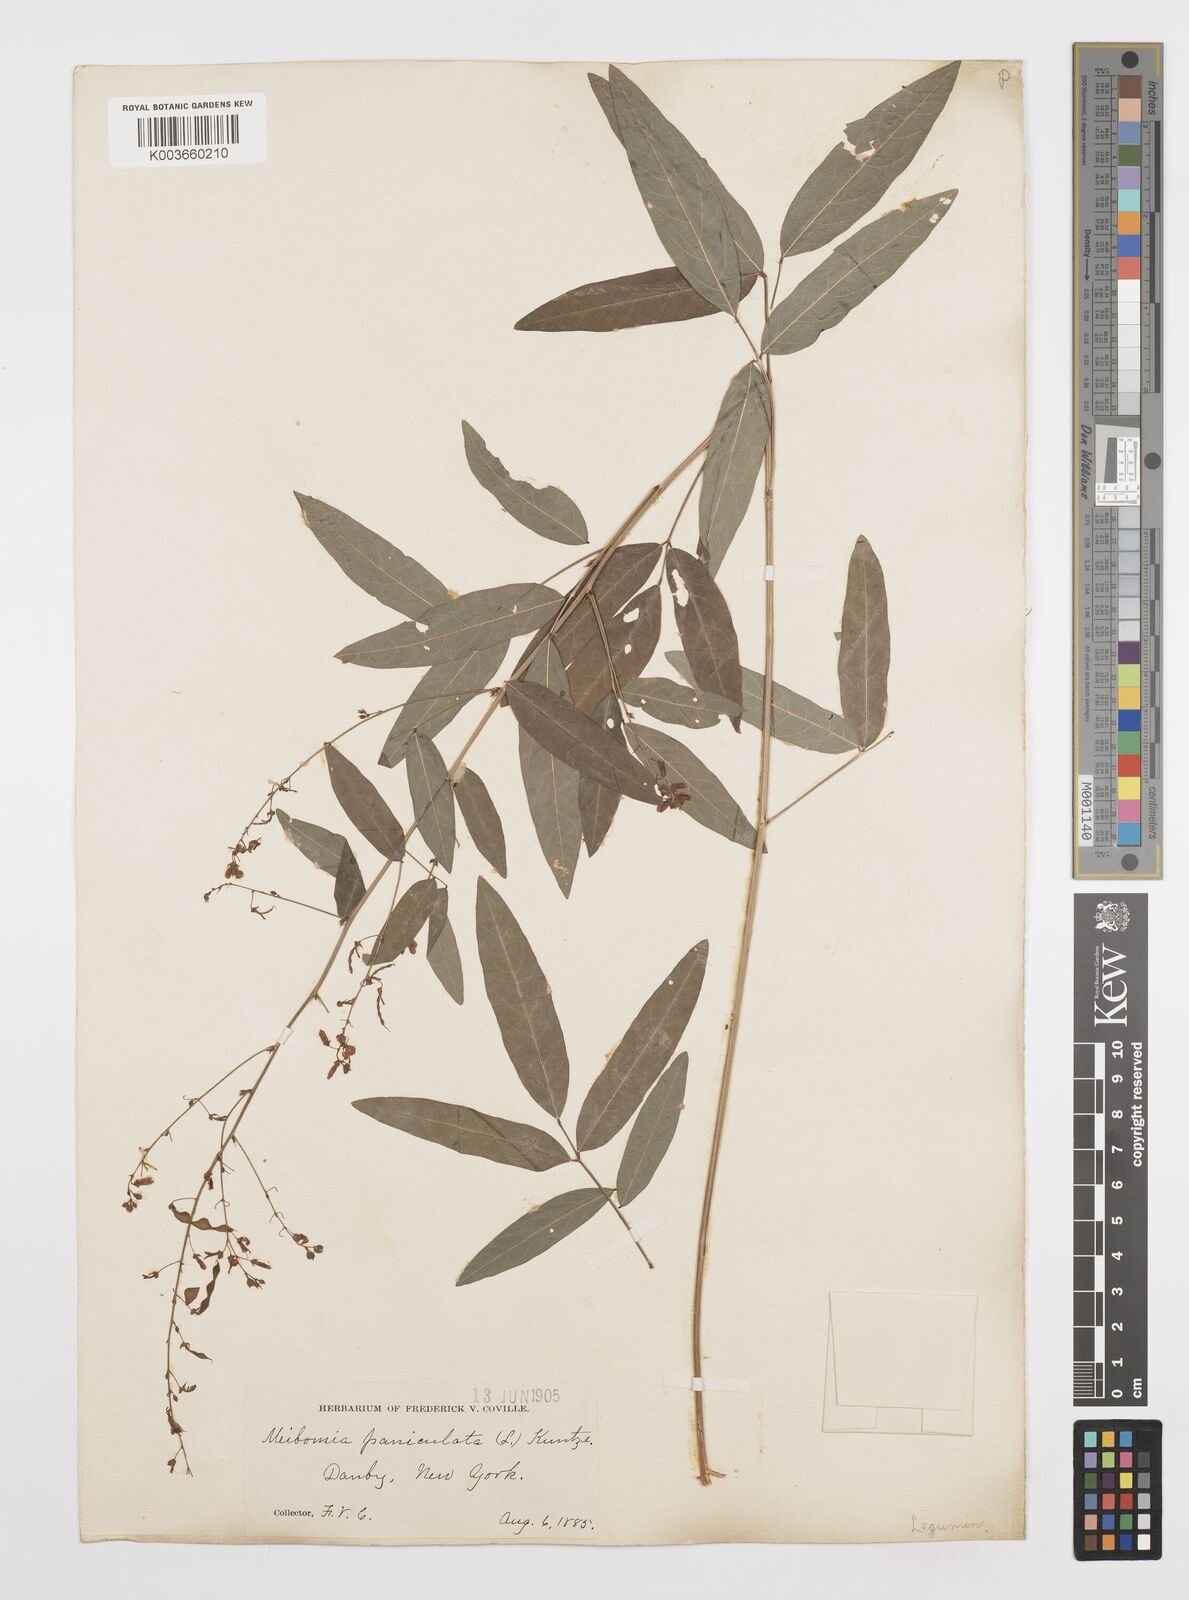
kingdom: Plantae
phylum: Tracheophyta
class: Magnoliopsida
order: Fabales
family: Fabaceae
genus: Desmodium
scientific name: Desmodium paniculatum
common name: Panicled tick-clover
